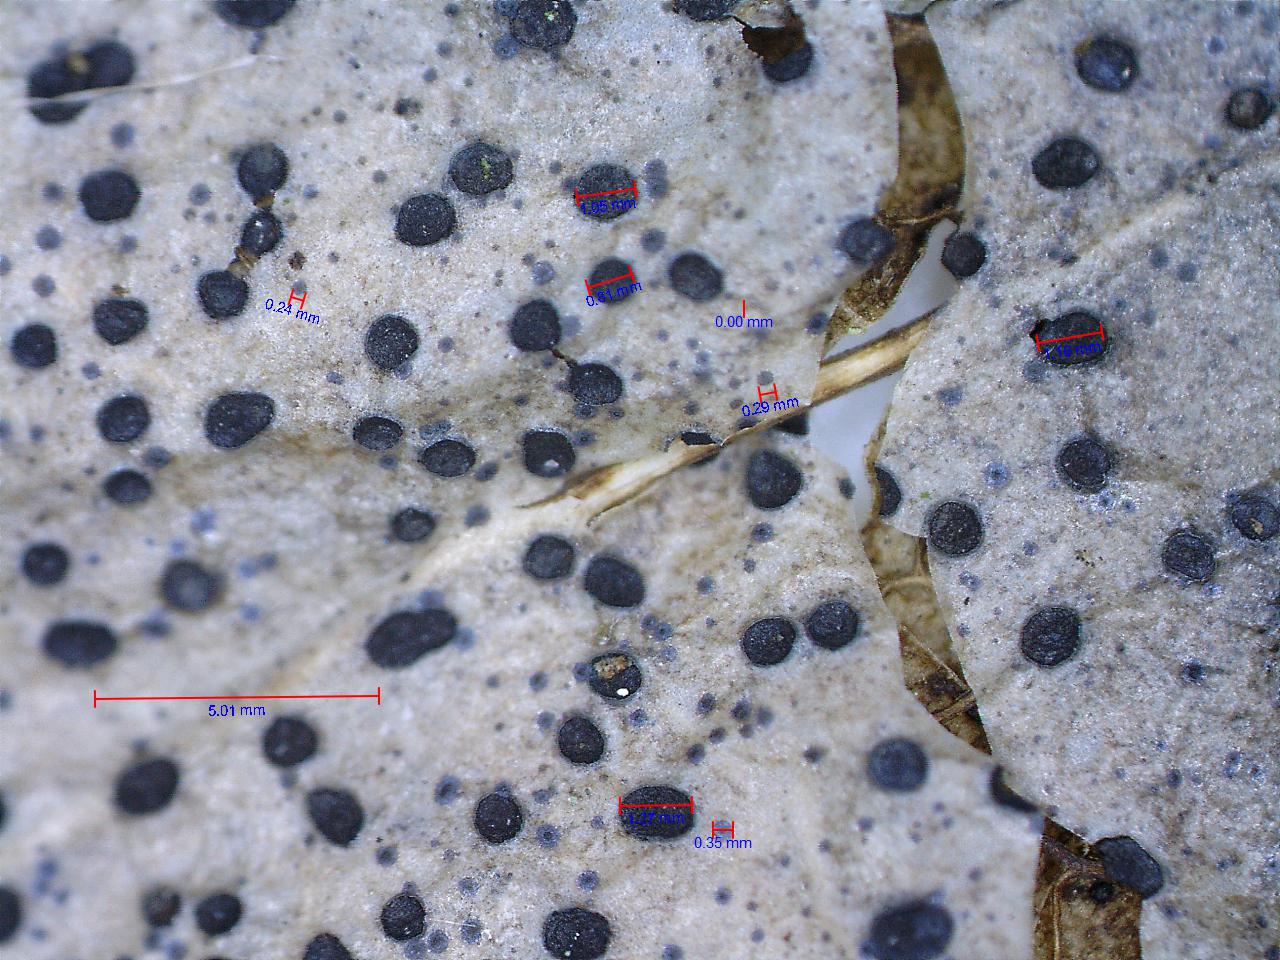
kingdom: Fungi
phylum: Ascomycota
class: Leotiomycetes
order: Helotiales
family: Cenangiaceae
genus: Trochila
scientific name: Trochila ilicina
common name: kristtorn-lågskive
